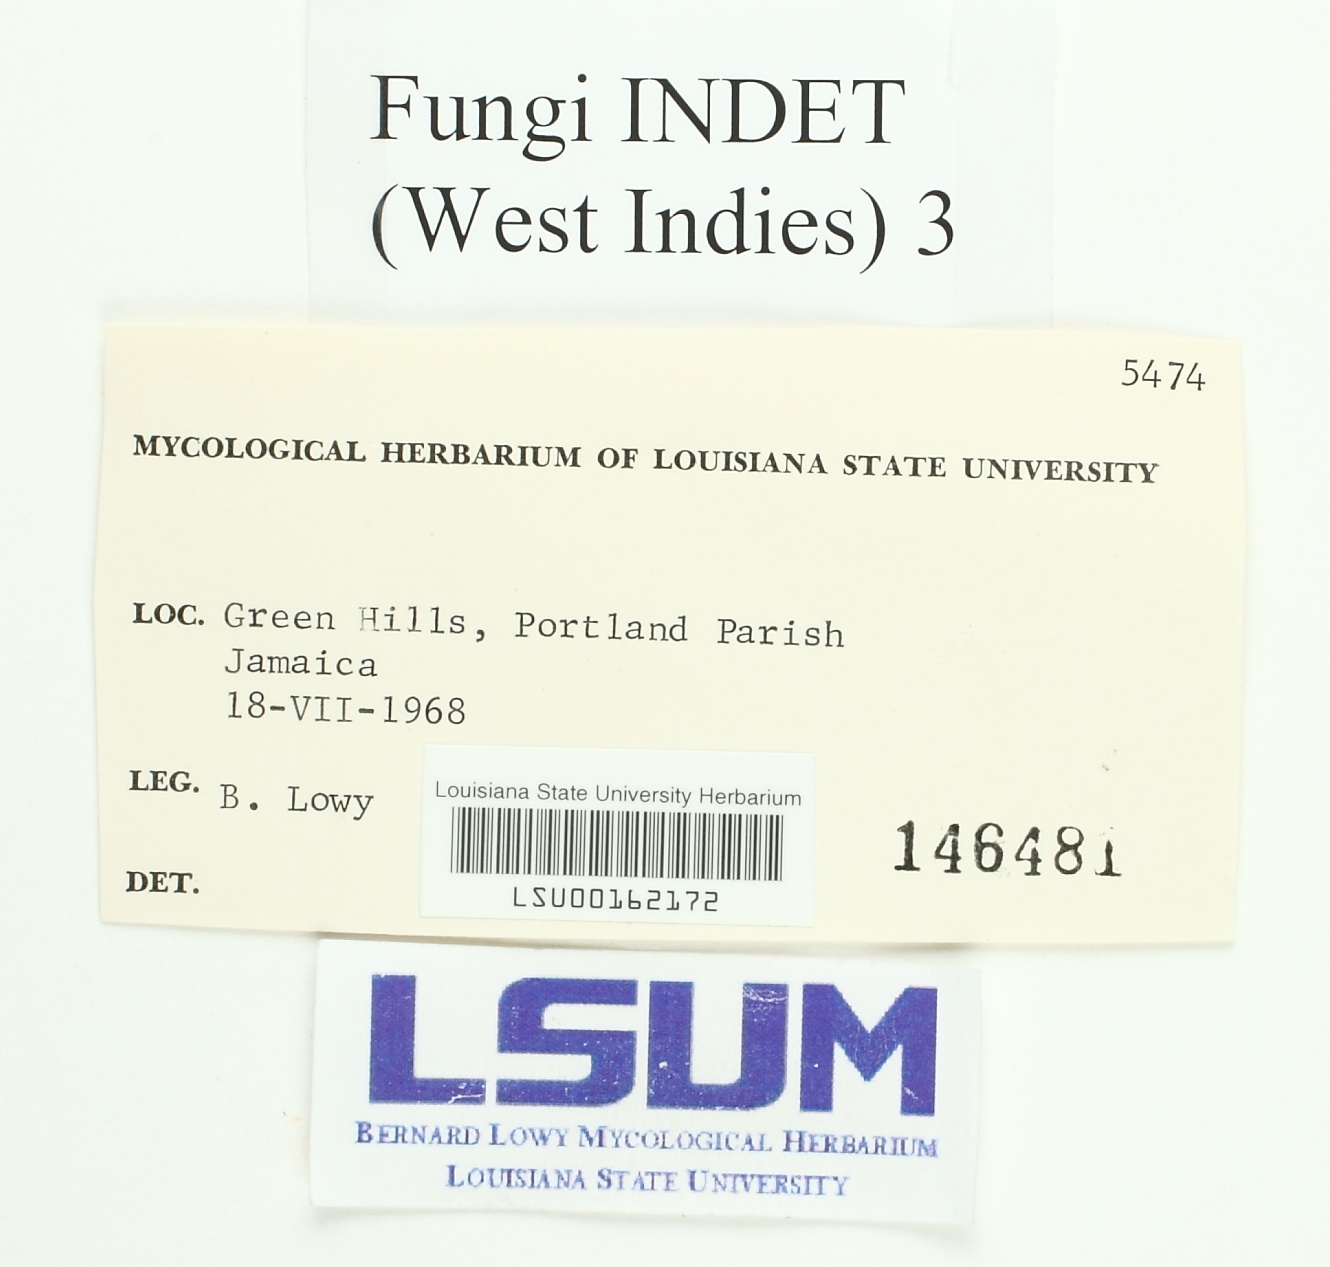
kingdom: Fungi
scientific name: Fungi
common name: Fungi
